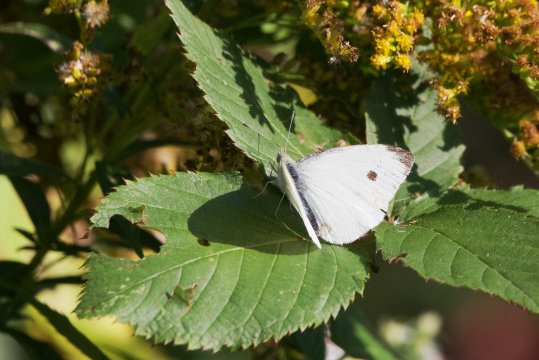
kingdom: Animalia
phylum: Arthropoda
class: Insecta
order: Lepidoptera
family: Pieridae
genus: Pieris
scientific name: Pieris rapae
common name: Cabbage White
